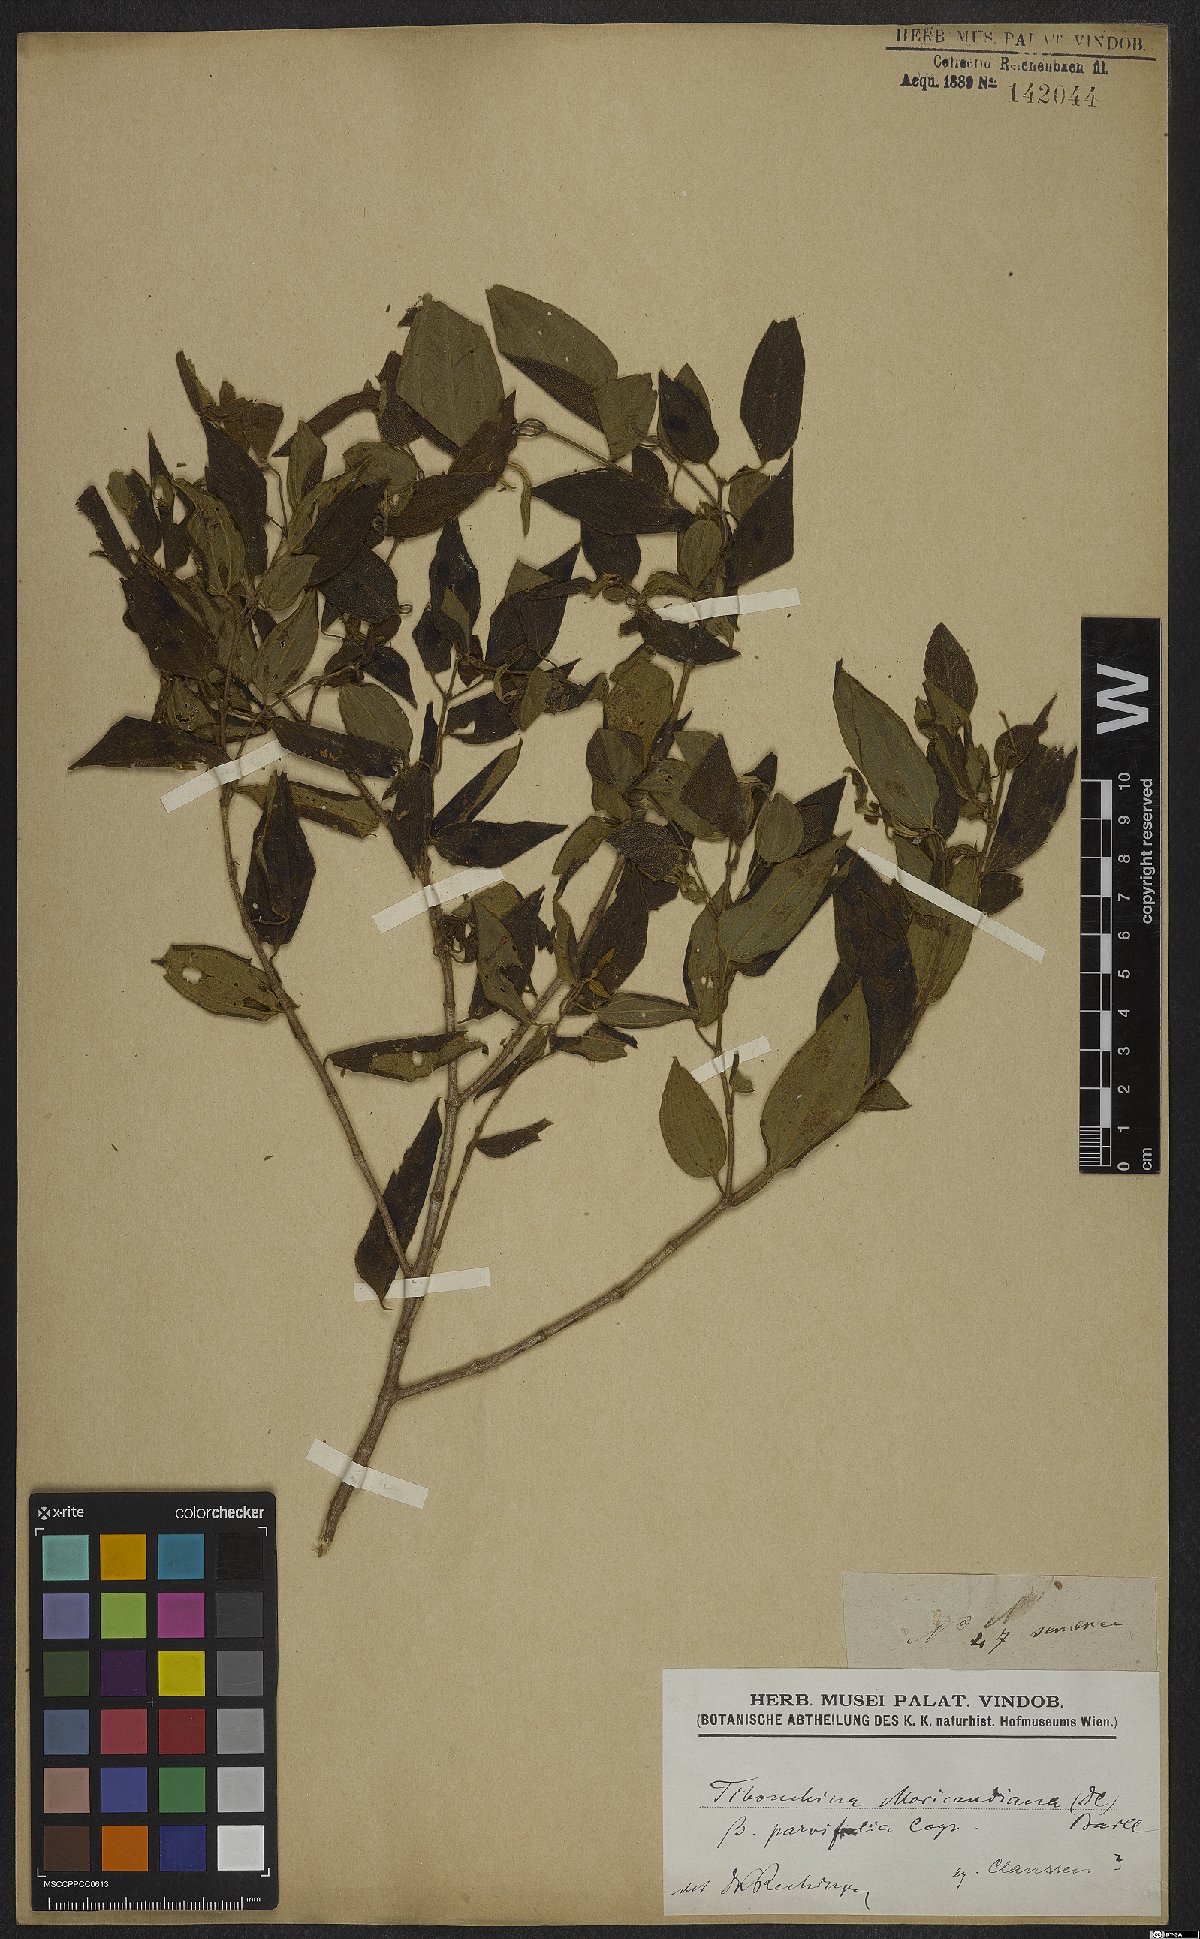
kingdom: Plantae
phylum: Tracheophyta
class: Magnoliopsida
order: Myrtales
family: Melastomataceae
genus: Pleroma
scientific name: Pleroma gaudichaudianum
